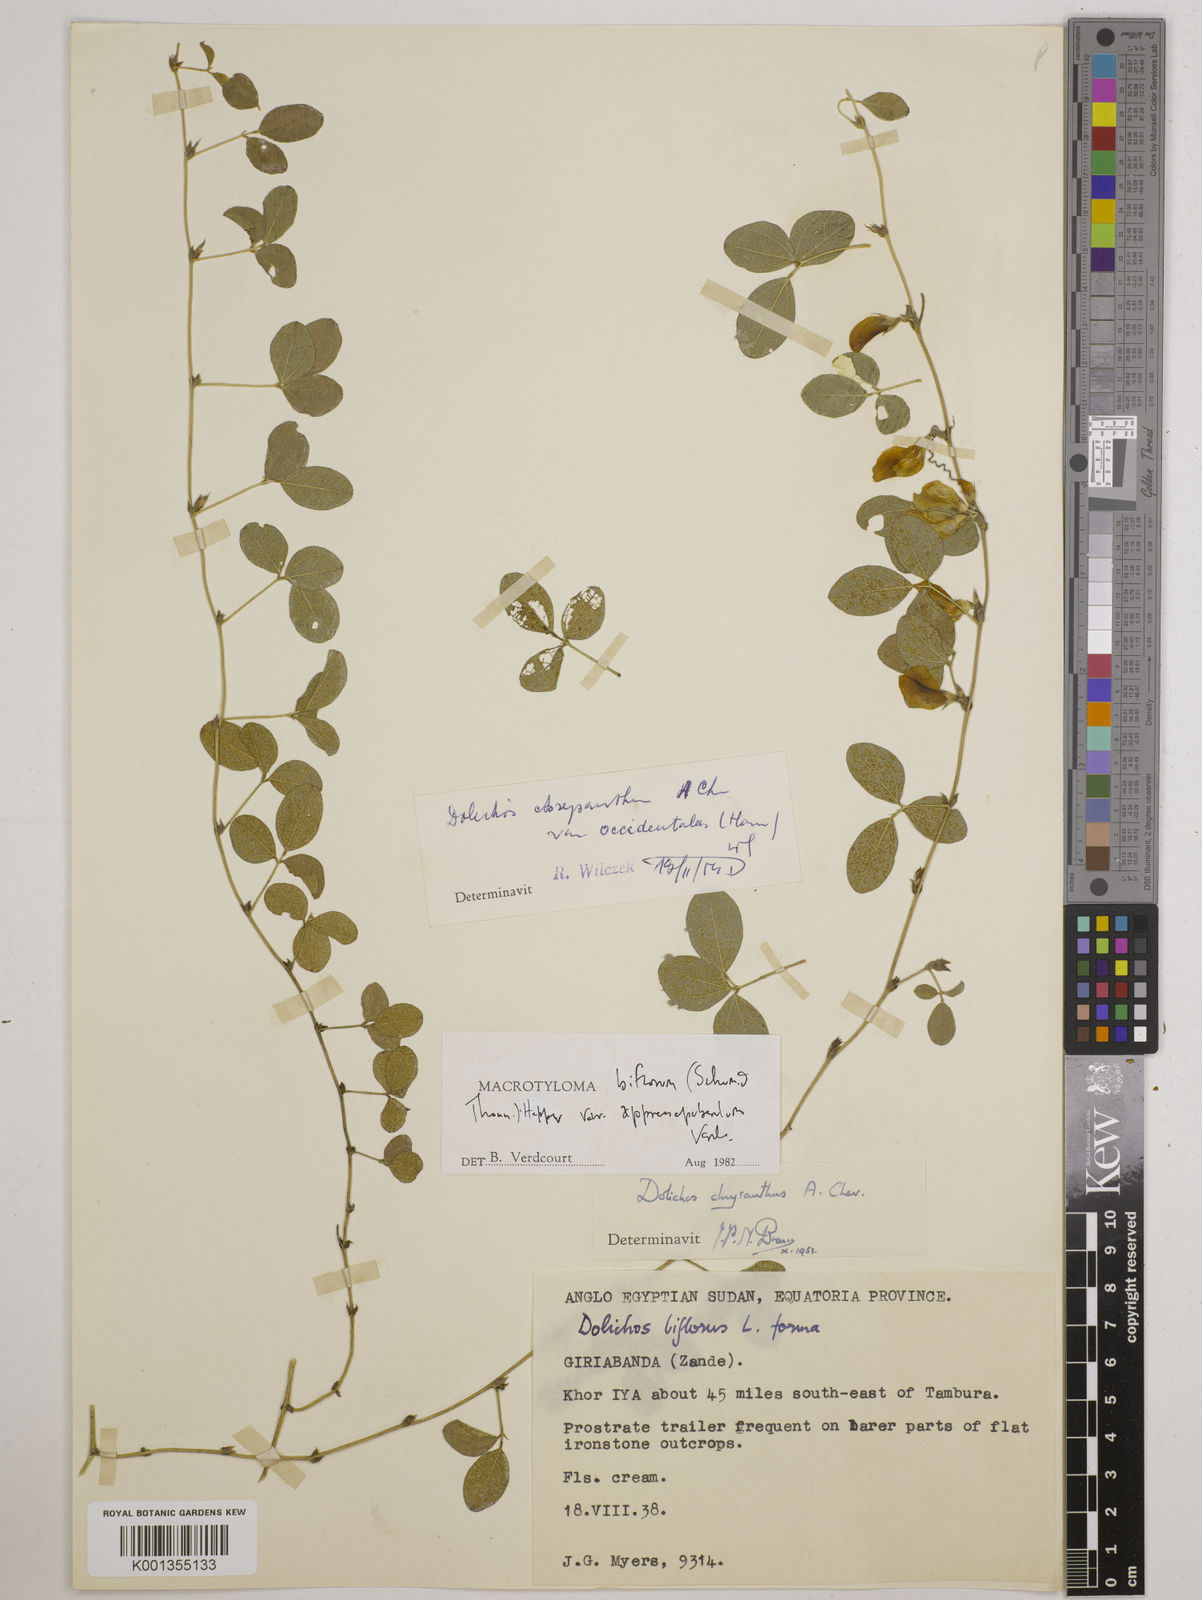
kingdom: Plantae
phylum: Tracheophyta
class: Magnoliopsida
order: Fabales
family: Fabaceae
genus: Macrotyloma
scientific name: Macrotyloma biflorum
